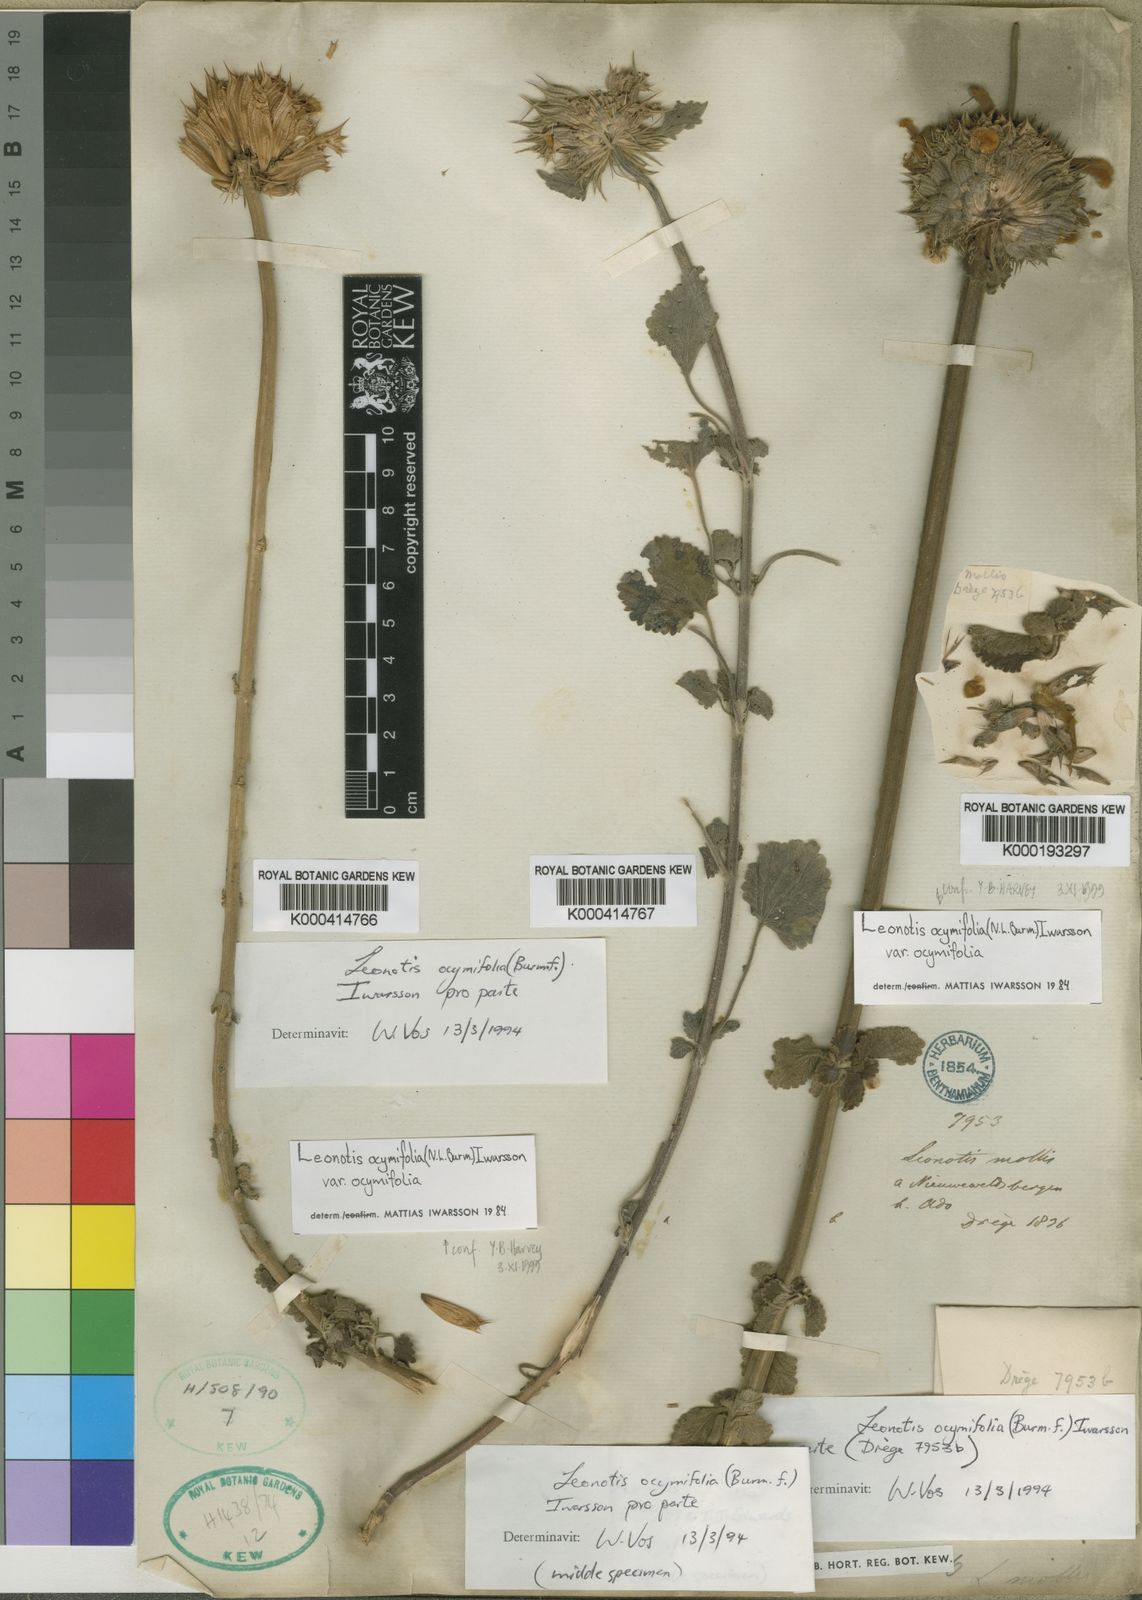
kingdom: Plantae
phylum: Tracheophyta
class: Magnoliopsida
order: Lamiales
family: Lamiaceae
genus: Leonotis
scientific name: Leonotis ocymifolia
